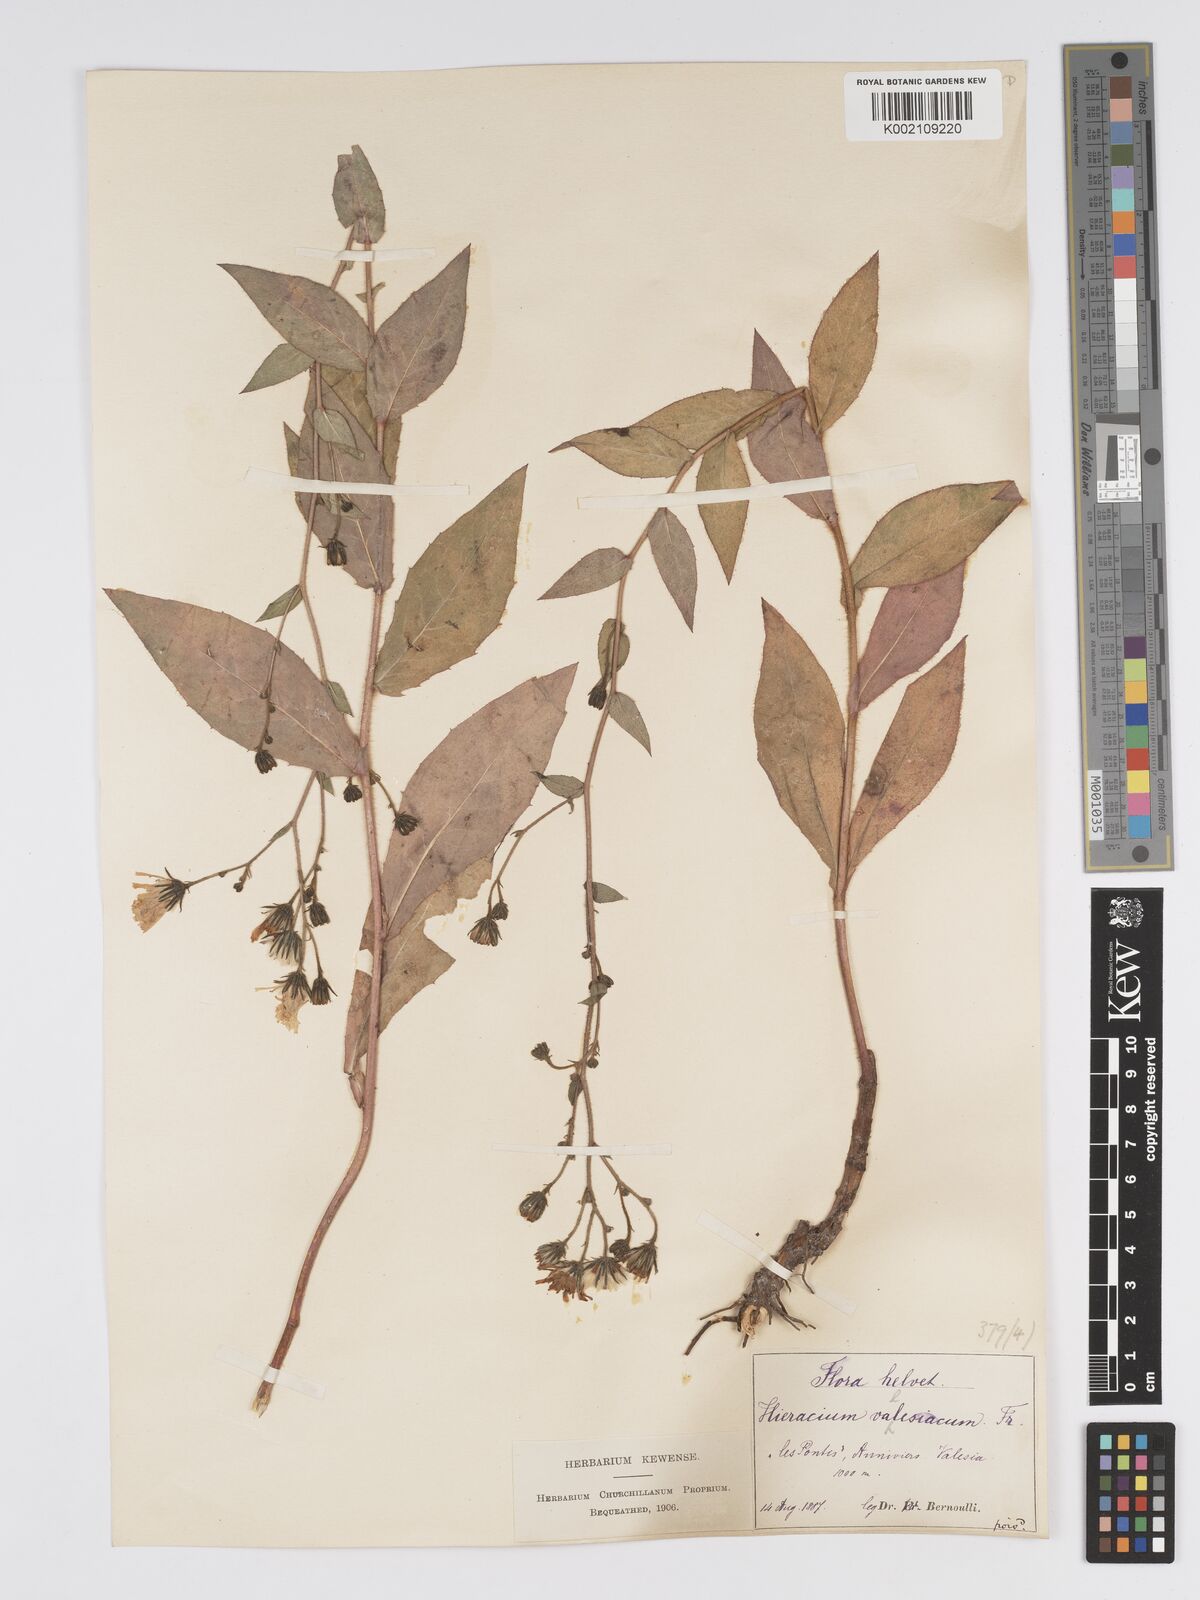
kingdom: Plantae
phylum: Tracheophyta
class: Magnoliopsida
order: Asterales
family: Asteraceae
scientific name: Asteraceae
